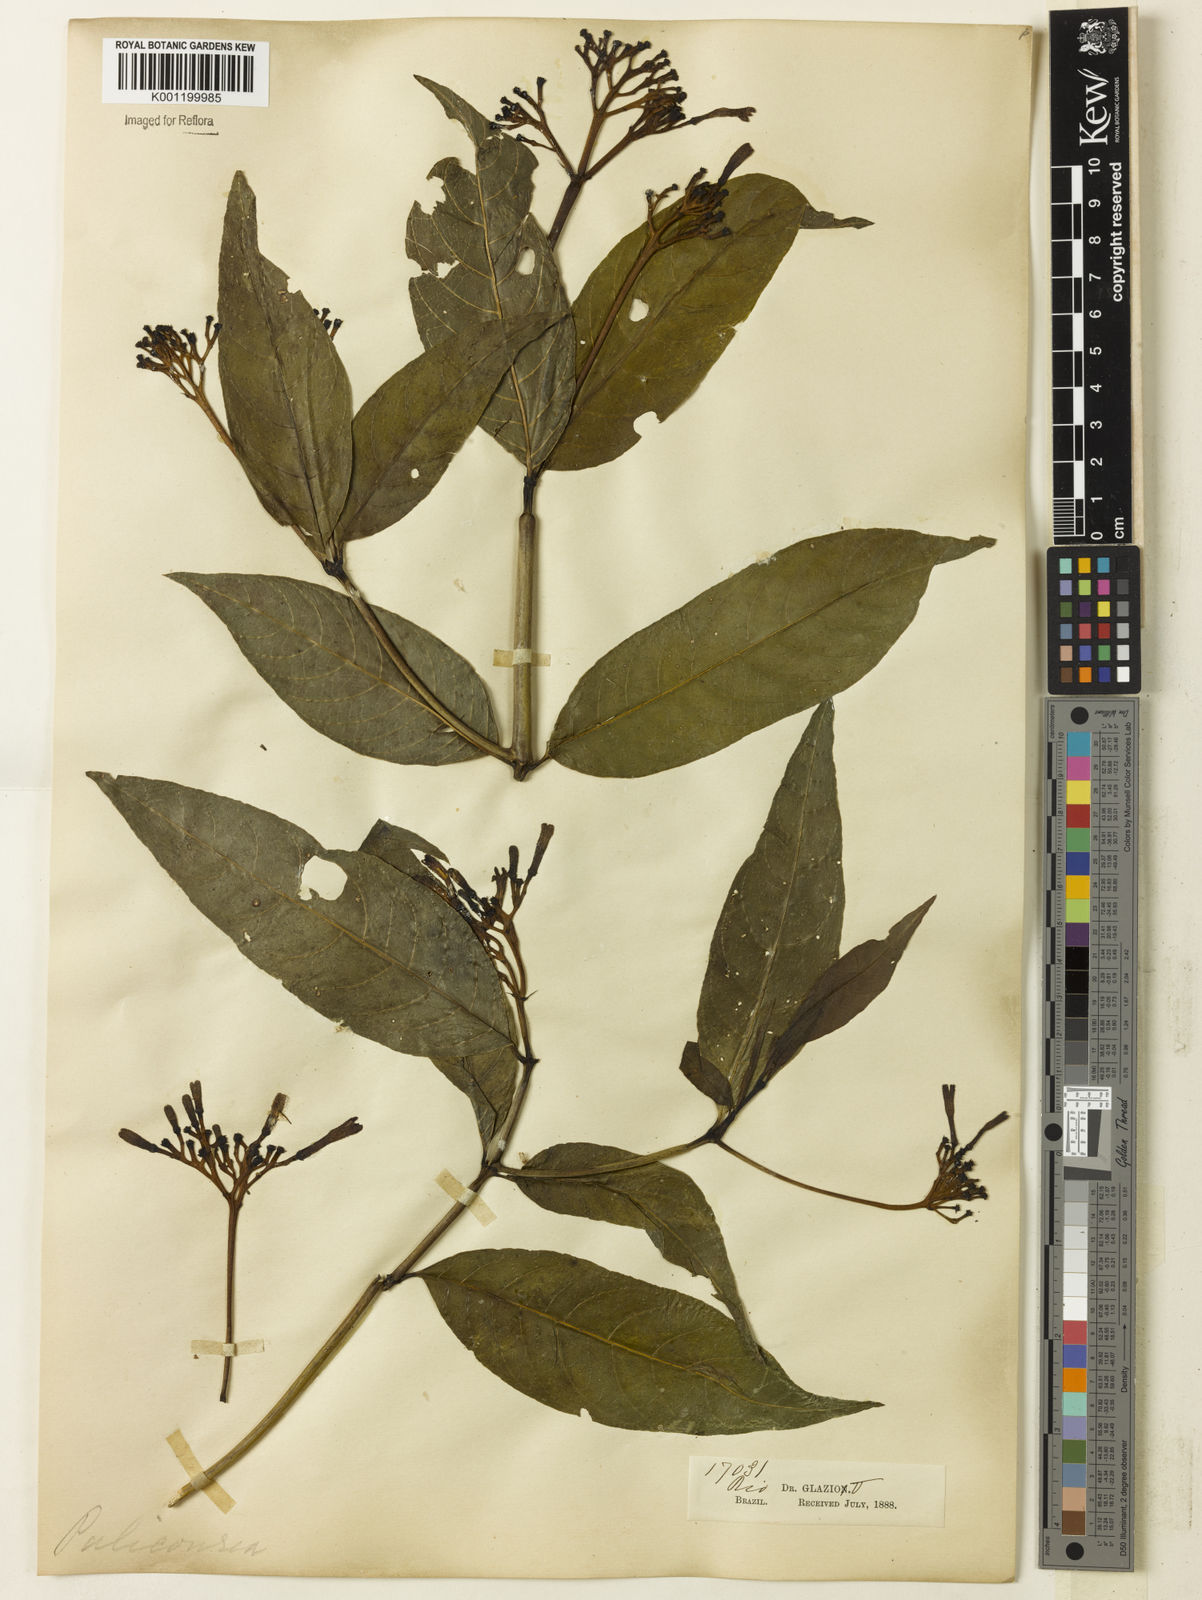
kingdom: Plantae
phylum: Tracheophyta
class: Magnoliopsida
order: Gentianales
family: Rubiaceae
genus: Palicourea
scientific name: Palicourea
